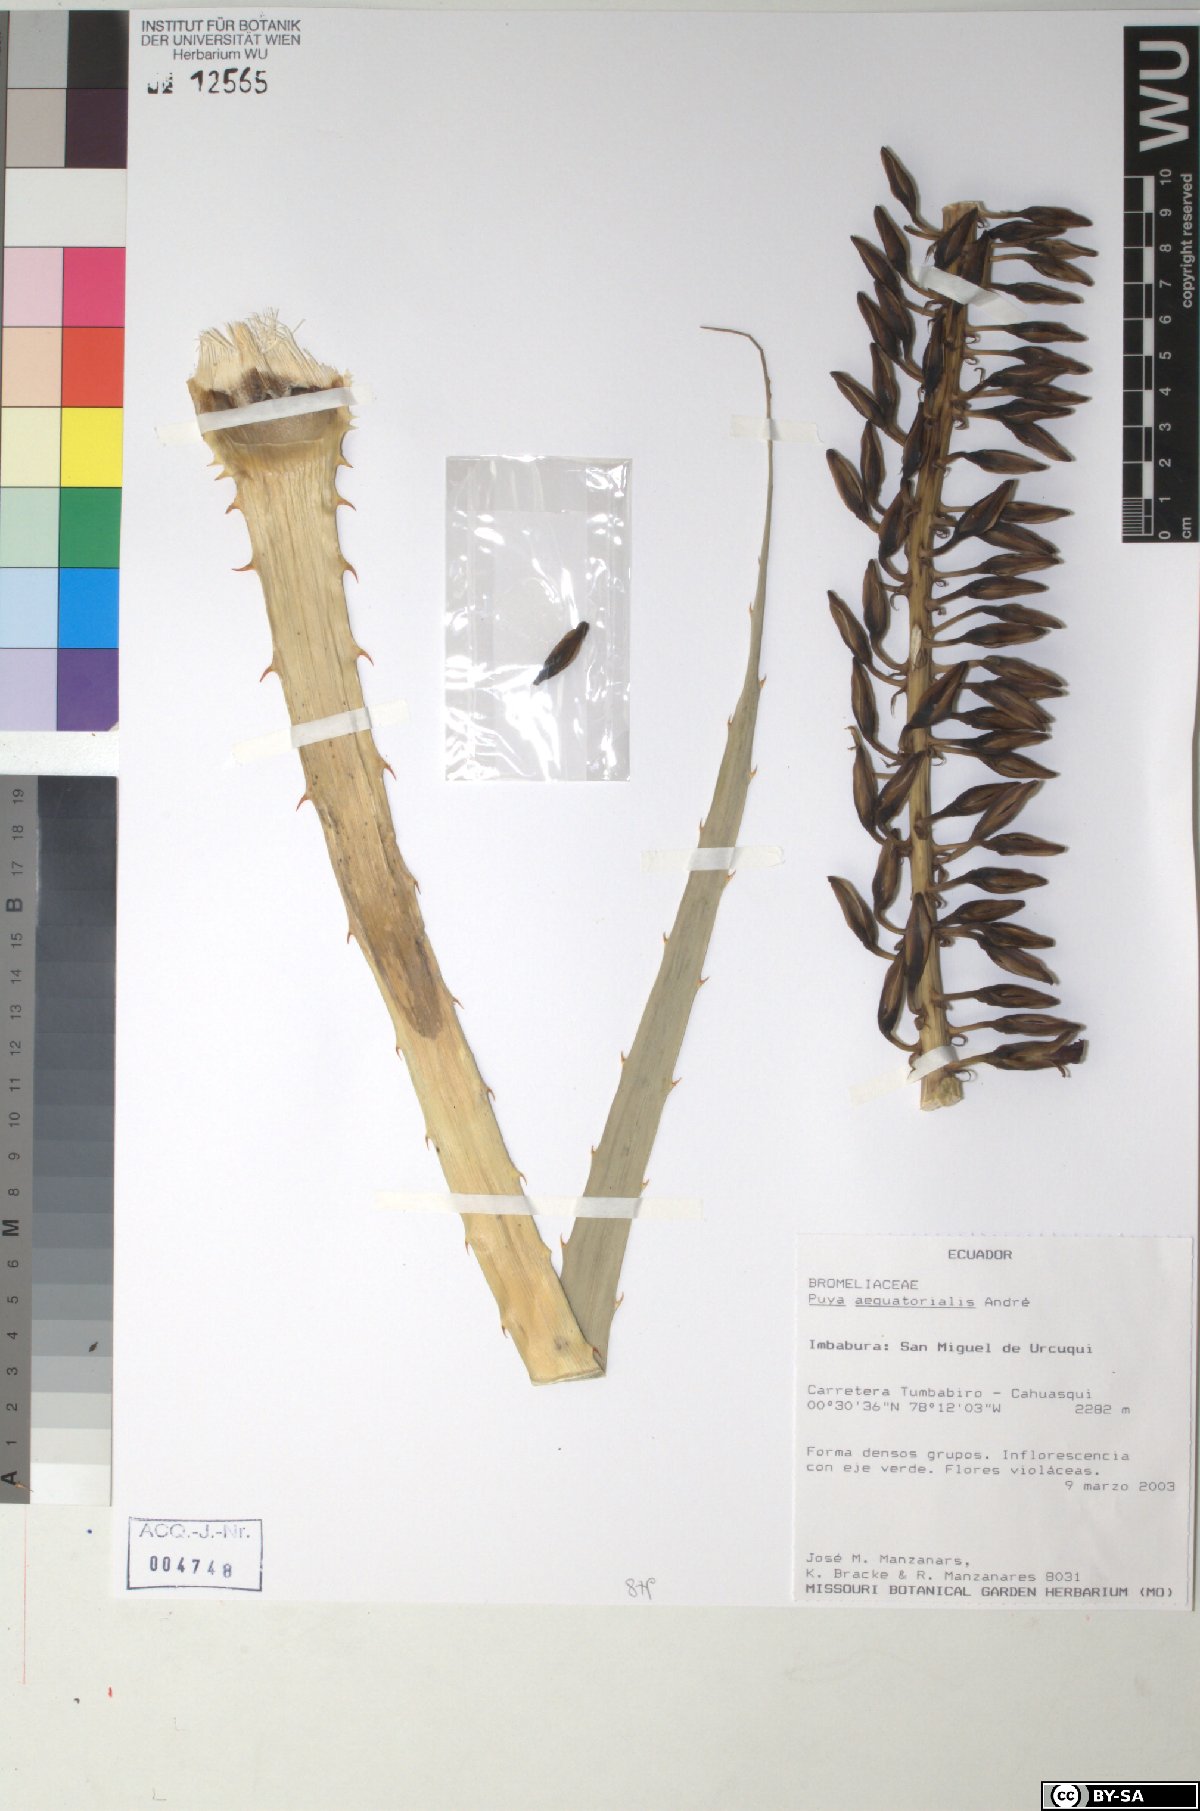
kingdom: Plantae
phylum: Tracheophyta
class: Liliopsida
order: Poales
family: Bromeliaceae
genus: Puya
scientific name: Puya aequatorialis
